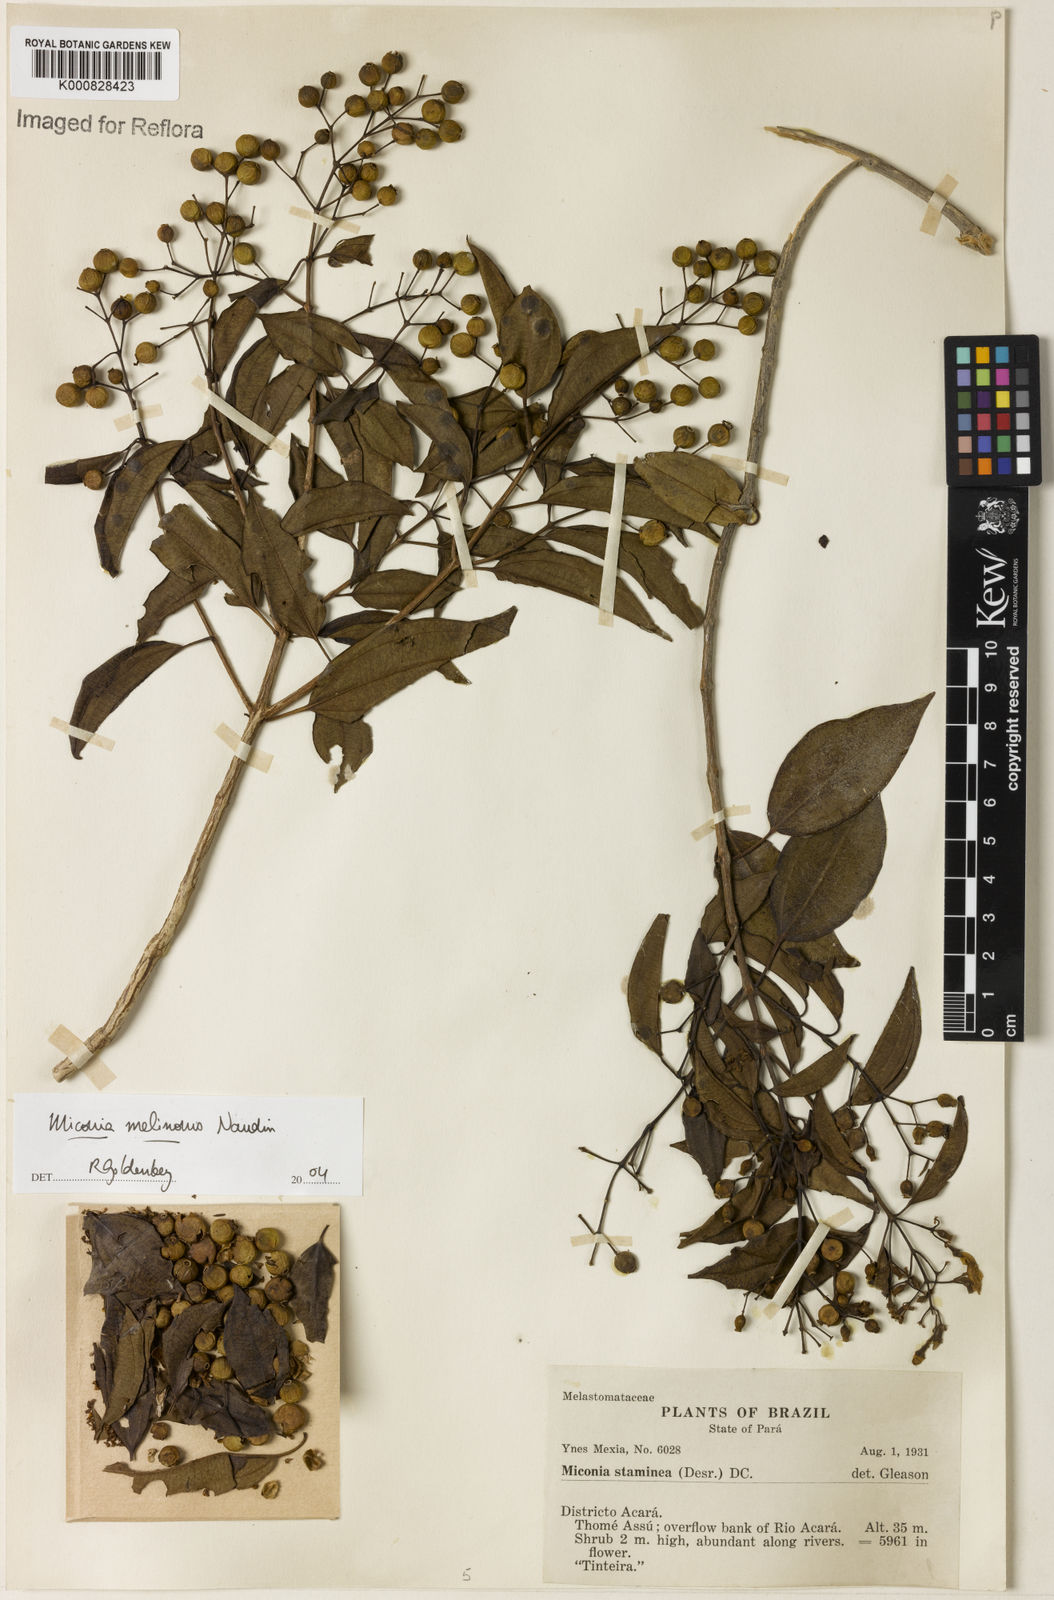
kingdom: Plantae
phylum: Tracheophyta
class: Magnoliopsida
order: Myrtales
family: Melastomataceae
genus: Miconia
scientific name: Miconia melinonis
